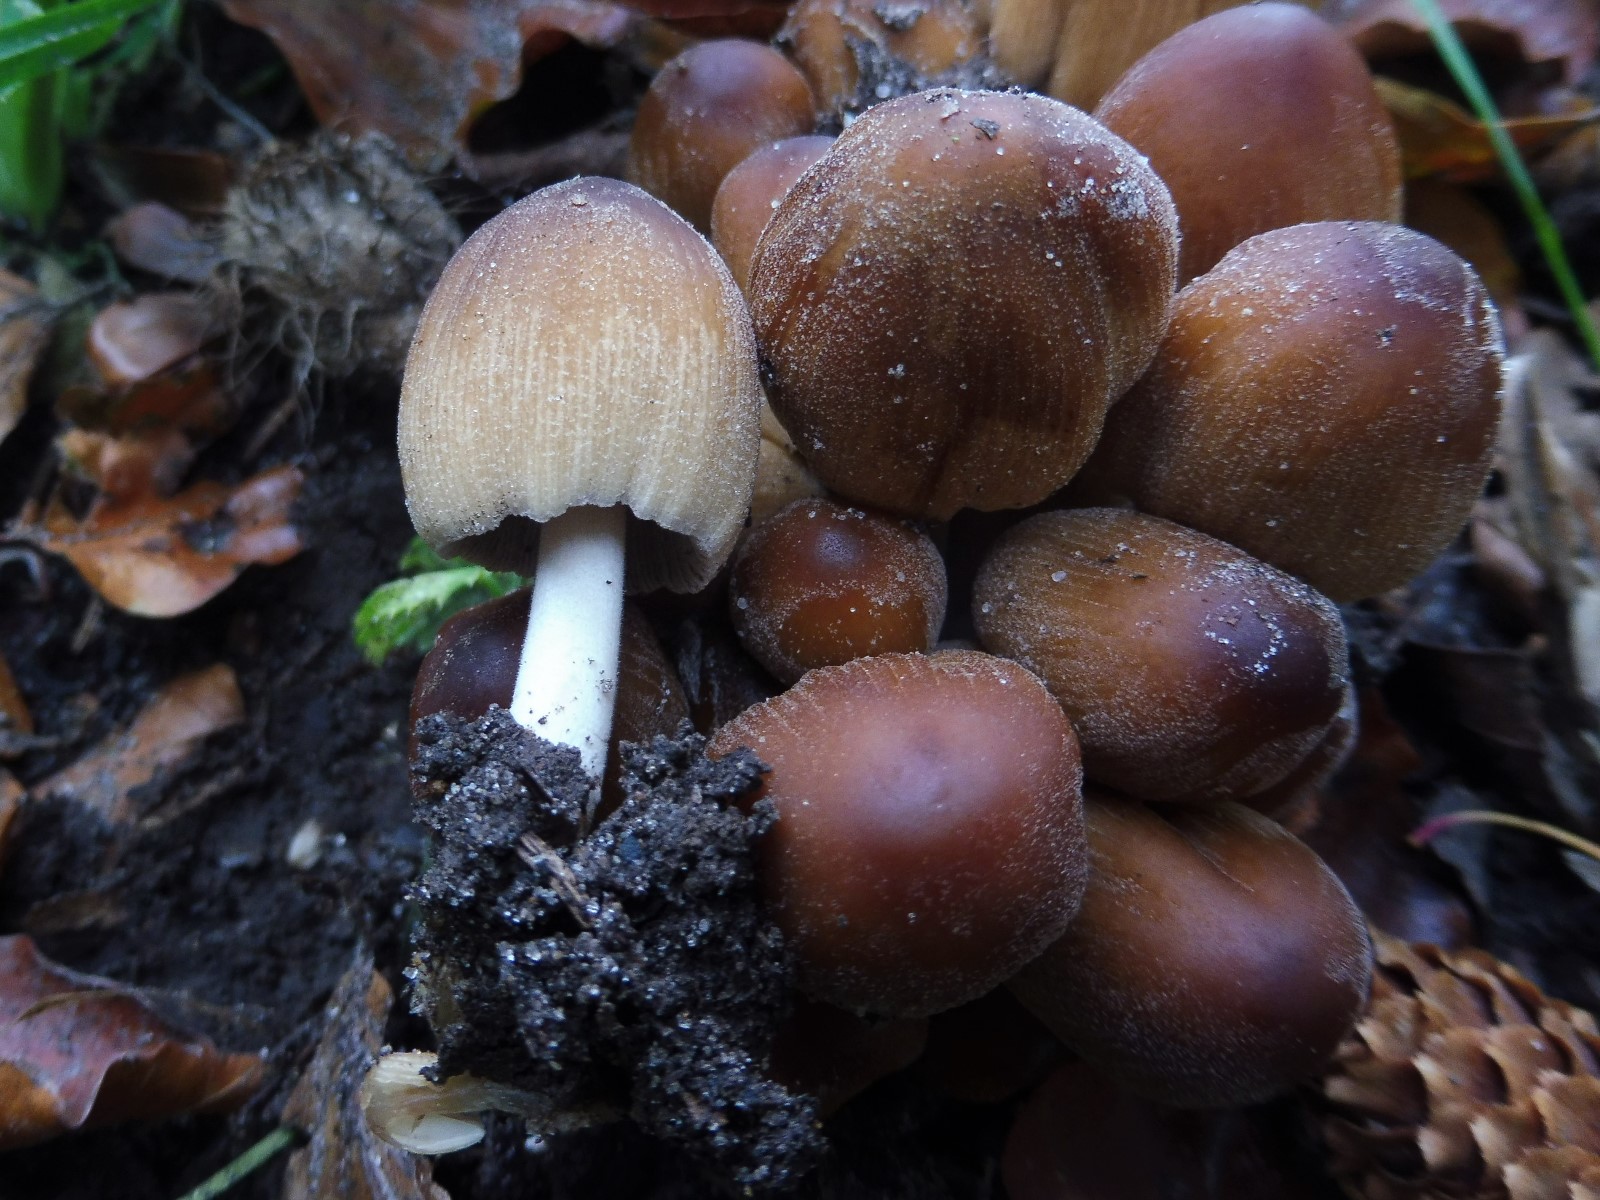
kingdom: Fungi
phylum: Basidiomycota
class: Agaricomycetes
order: Agaricales
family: Psathyrellaceae
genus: Coprinellus
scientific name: Coprinellus micaceus
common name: glimmer-blækhat
